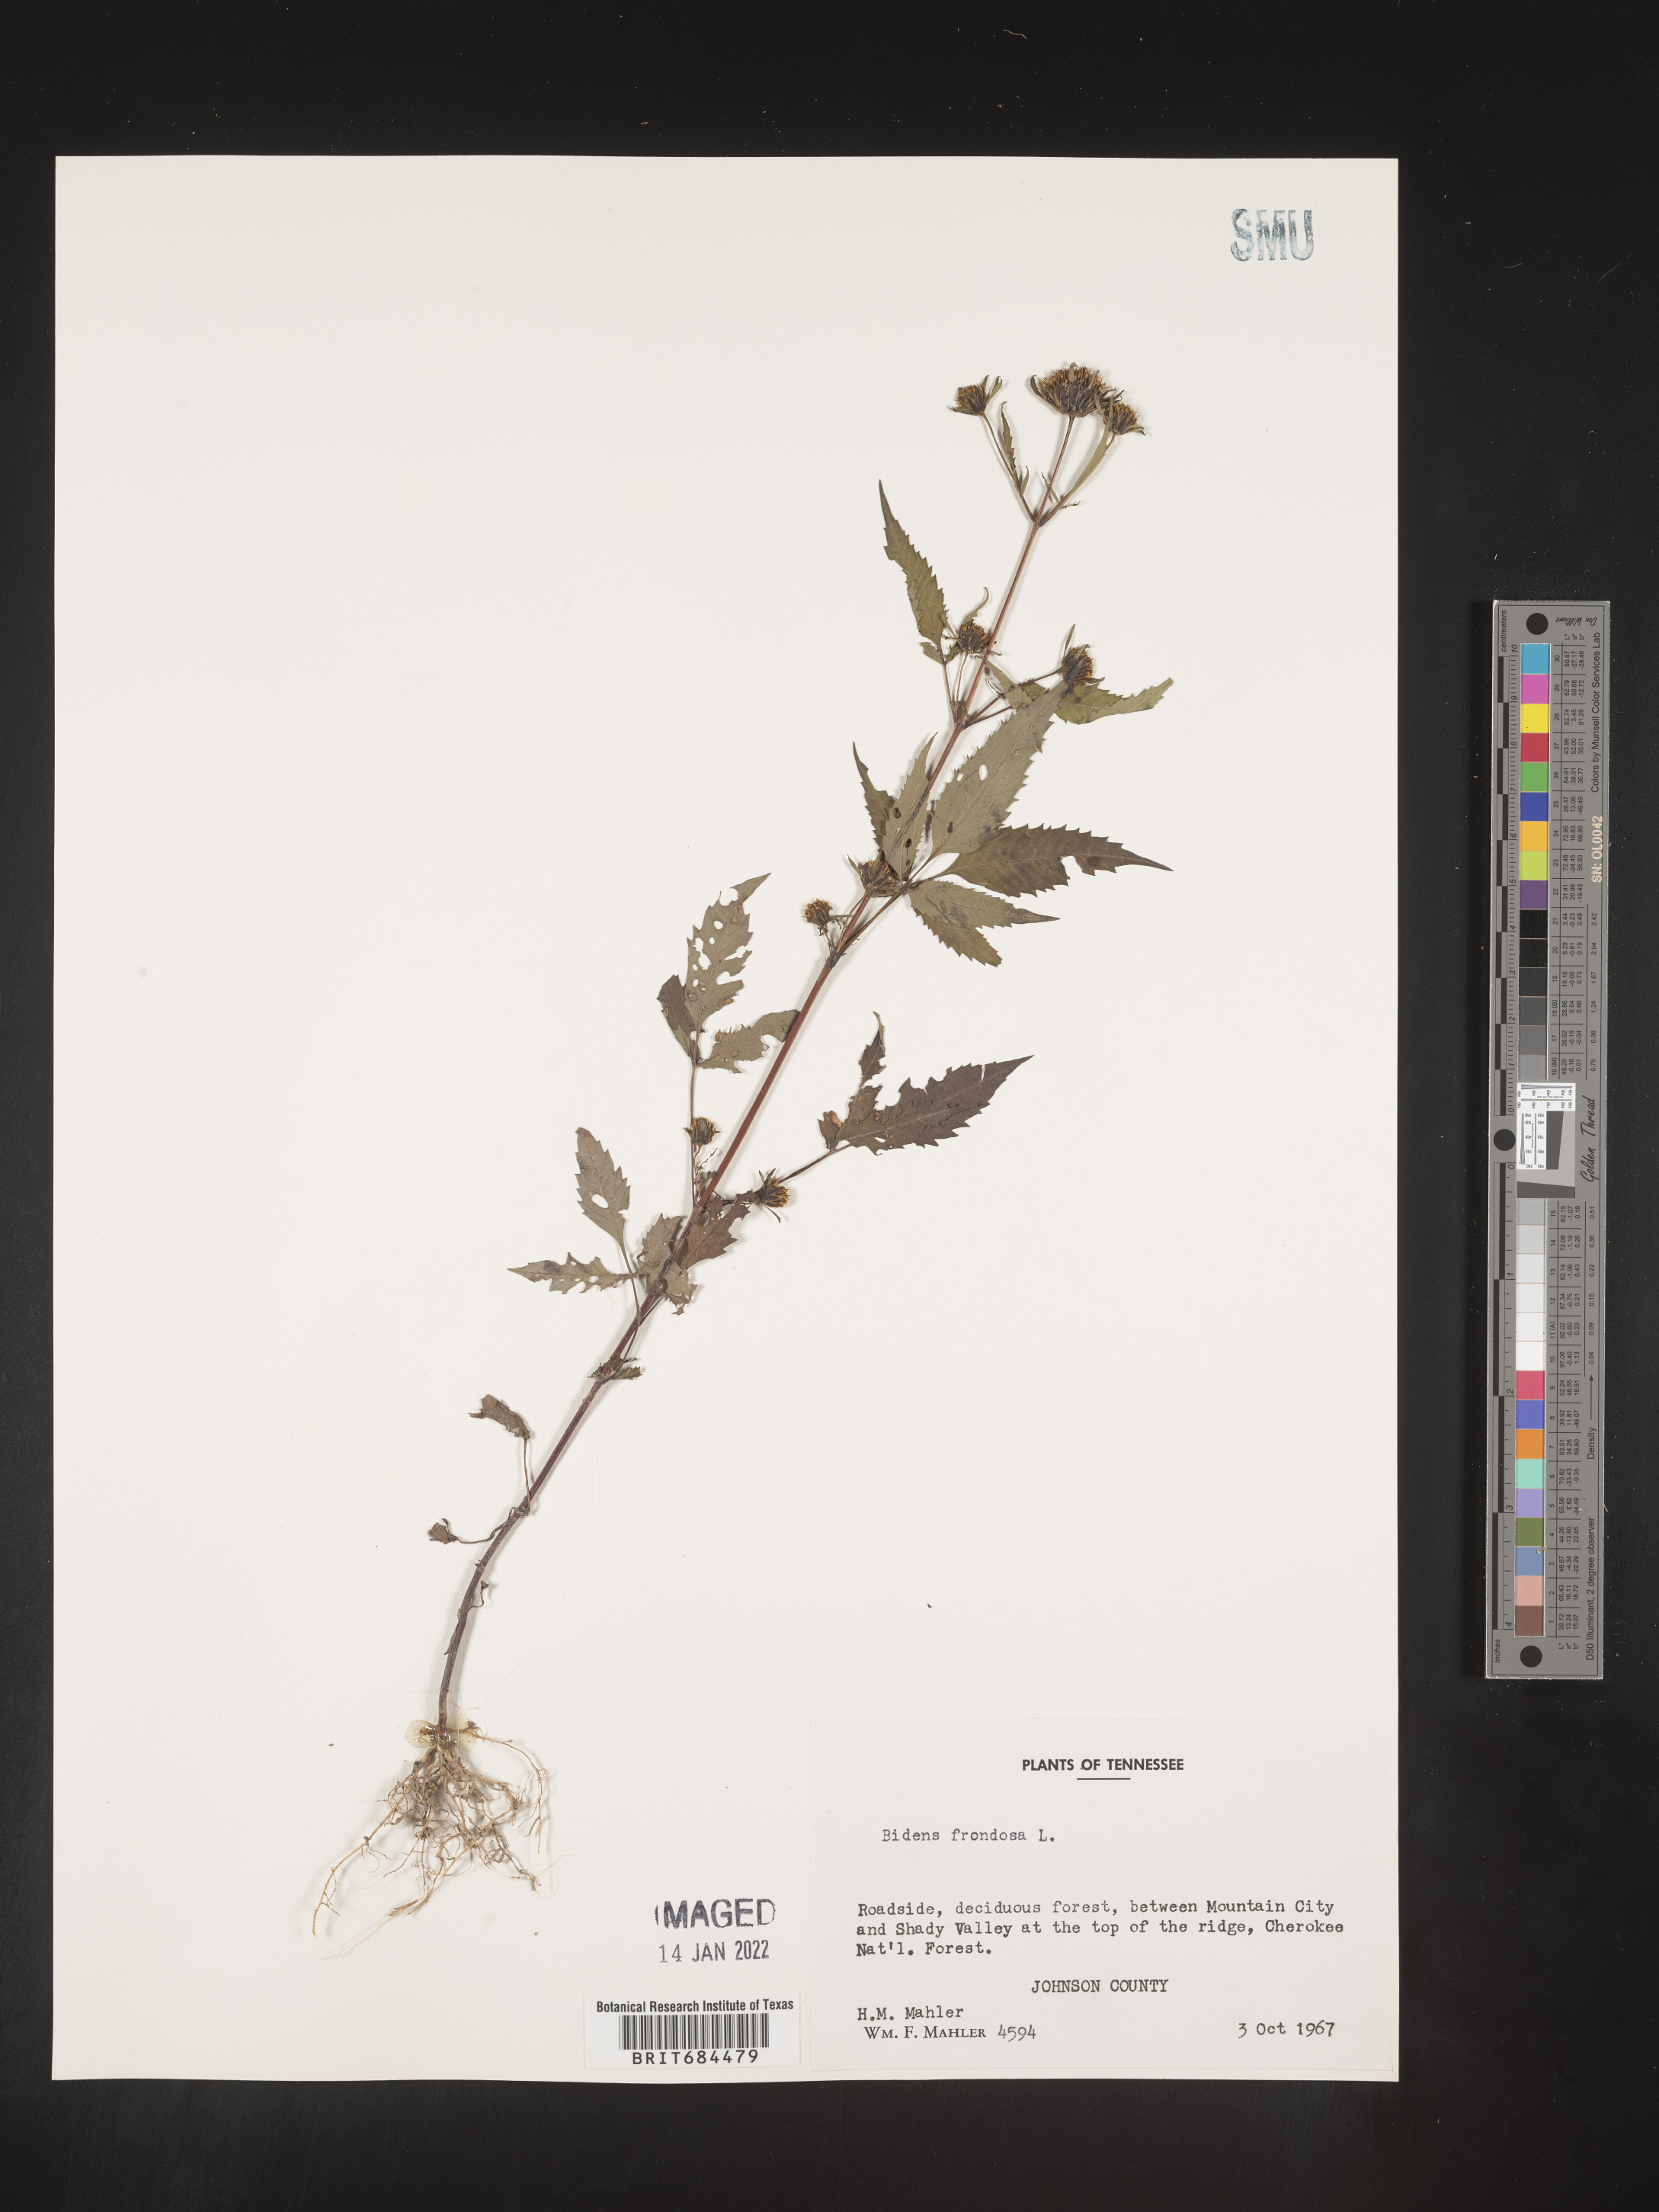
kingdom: Plantae
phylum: Tracheophyta
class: Magnoliopsida
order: Asterales
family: Asteraceae
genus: Bidens
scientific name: Bidens frondosa
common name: Beggarticks
